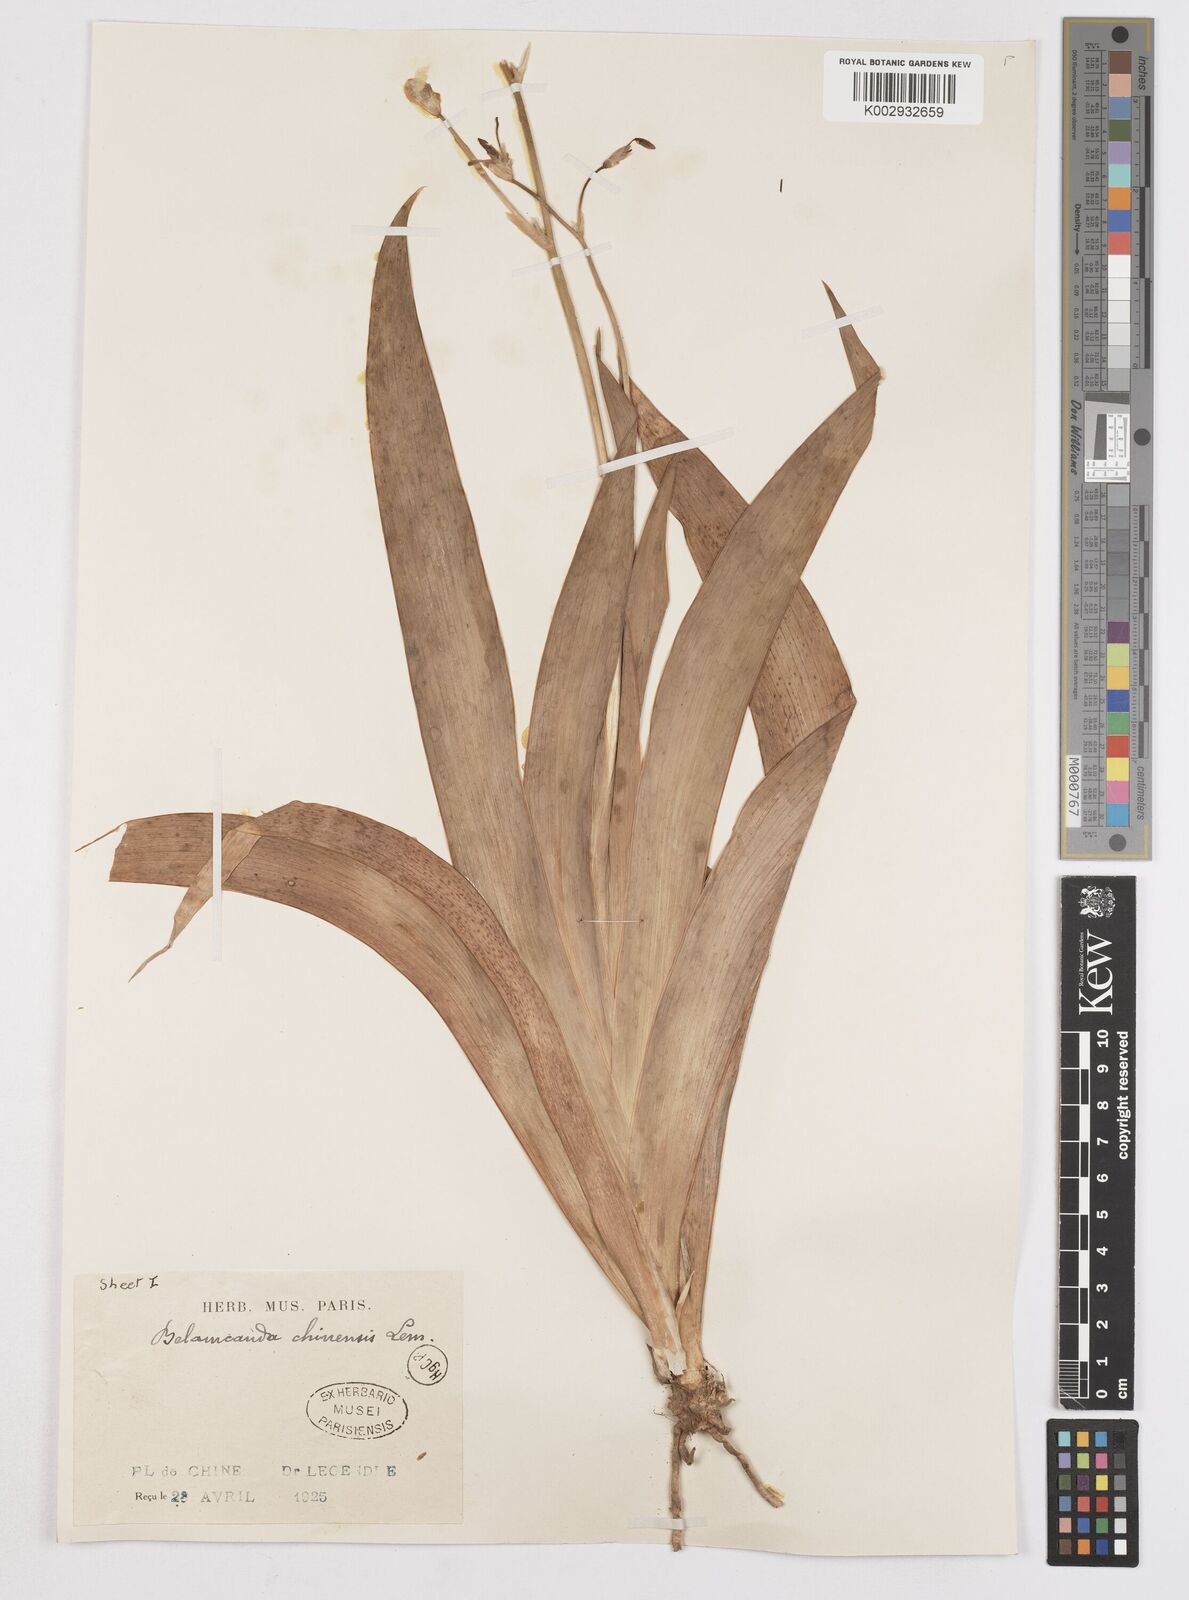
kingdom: Plantae
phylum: Tracheophyta
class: Liliopsida
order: Asparagales
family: Iridaceae
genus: Iris
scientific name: Iris
